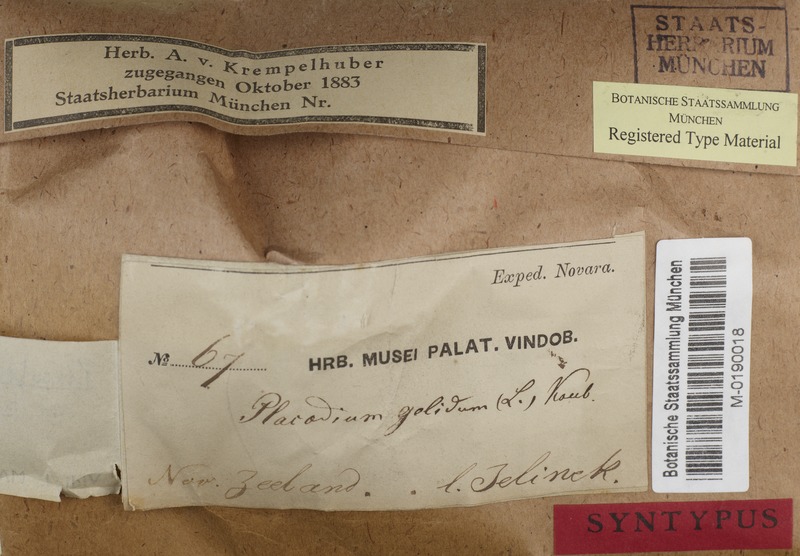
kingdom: Fungi
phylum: Ascomycota
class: Lecanoromycetes
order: Baeomycetales
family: Trapeliaceae
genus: Placopsis
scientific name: Placopsis cribellans
